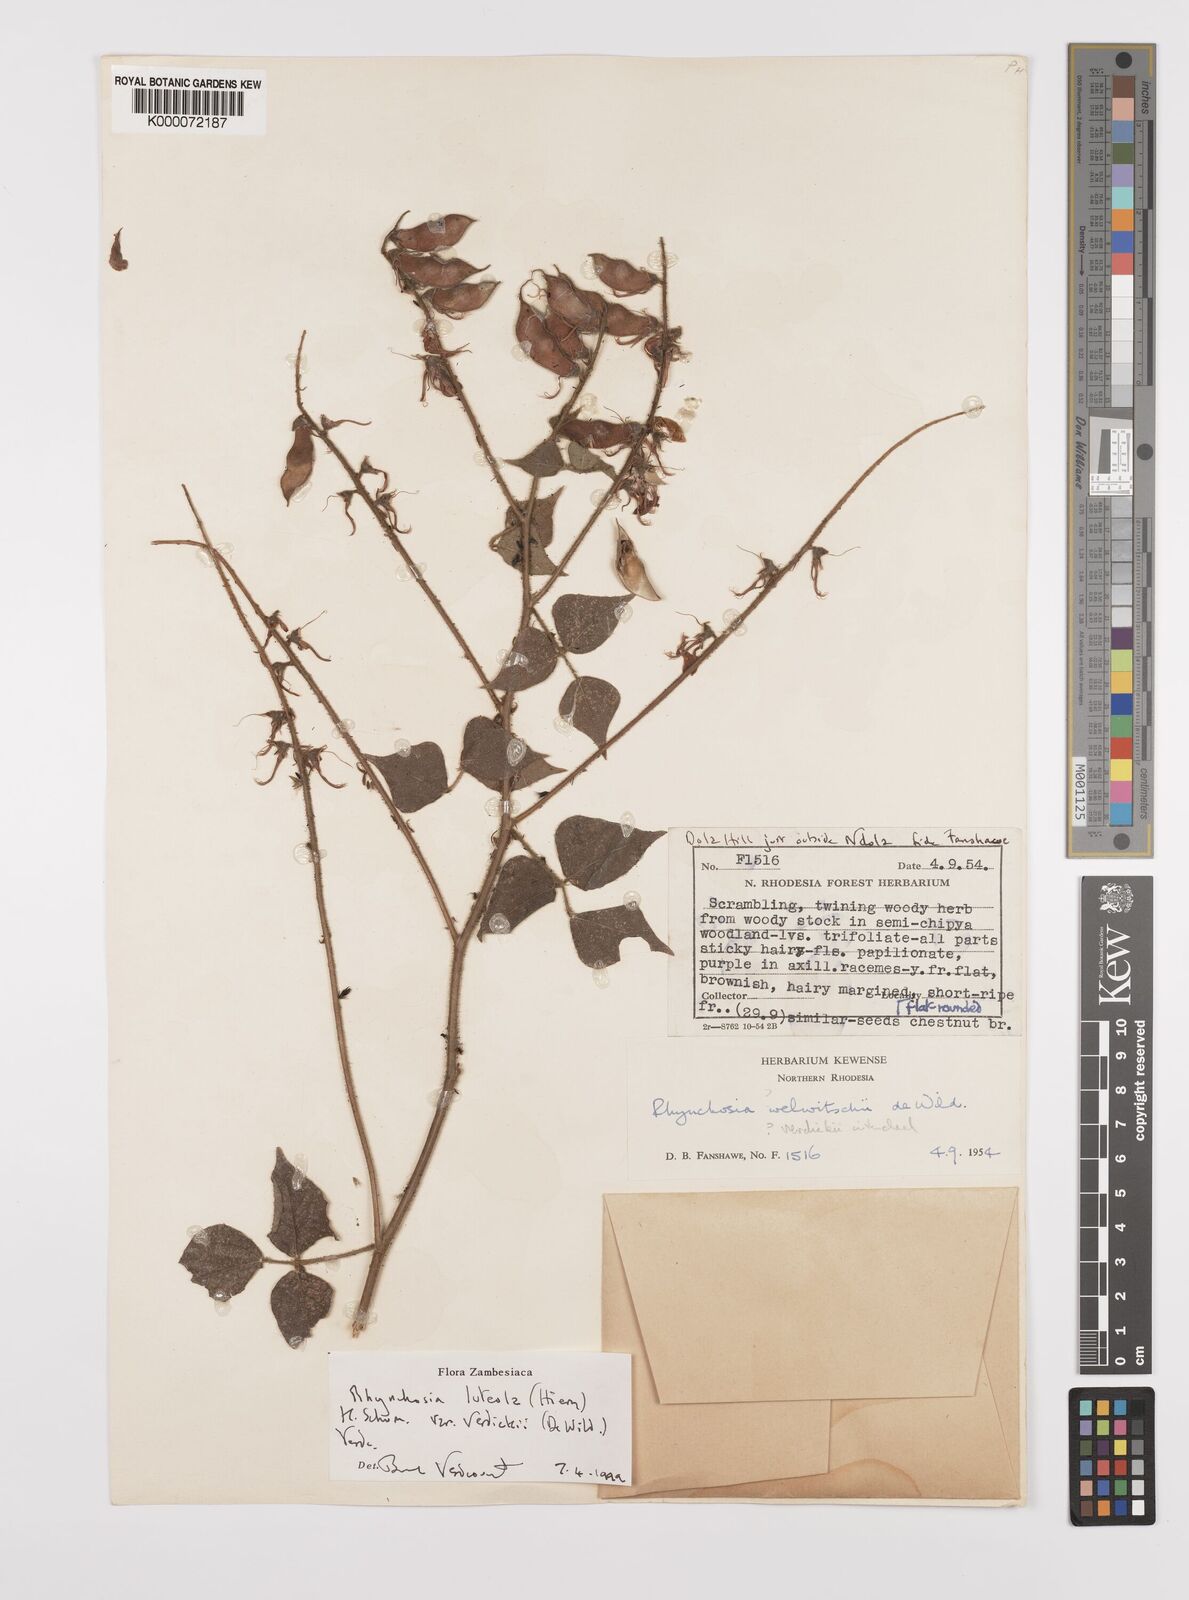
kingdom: Plantae
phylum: Tracheophyta
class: Magnoliopsida
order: Fabales
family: Fabaceae
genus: Rhynchosia
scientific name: Rhynchosia luteola
